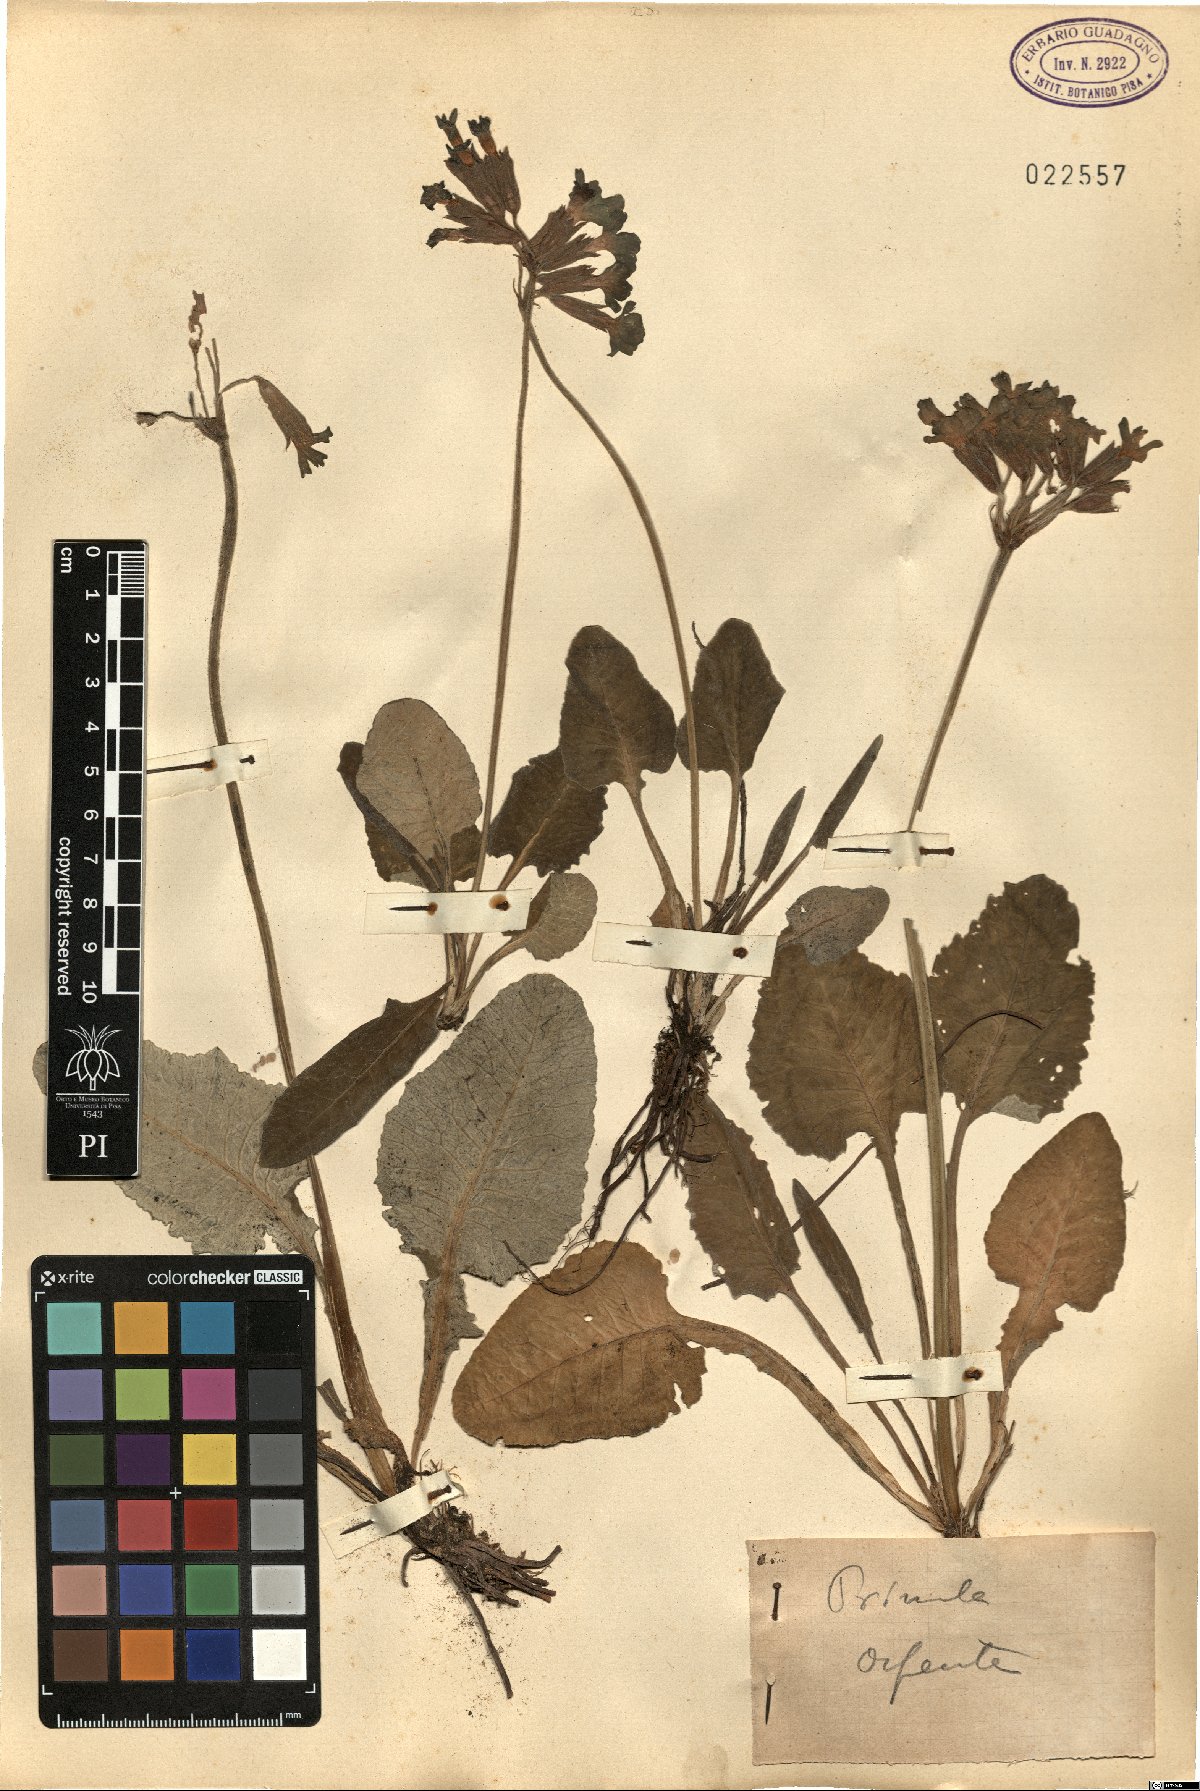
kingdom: Plantae
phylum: Tracheophyta
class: Magnoliopsida
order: Ericales
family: Primulaceae
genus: Primula
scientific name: Primula
